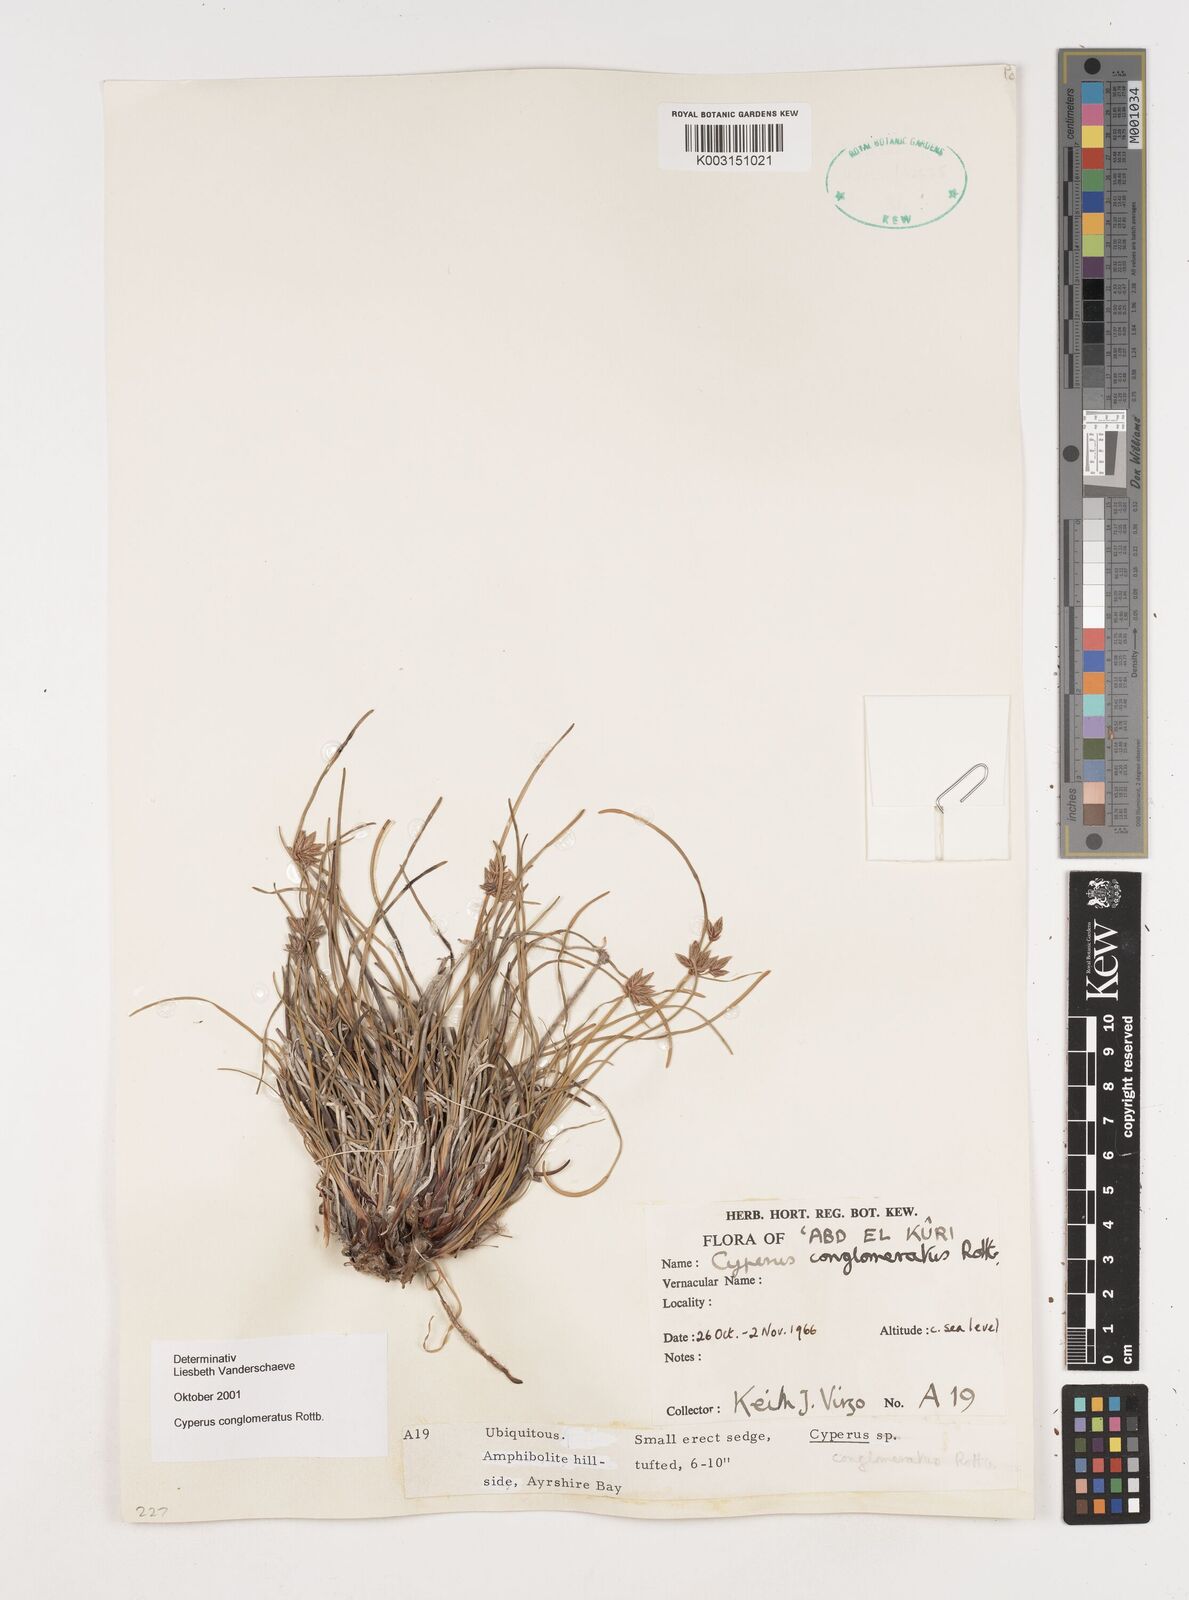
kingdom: Plantae
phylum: Tracheophyta
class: Liliopsida
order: Poales
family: Cyperaceae
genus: Cyperus
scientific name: Cyperus conglomeratus
